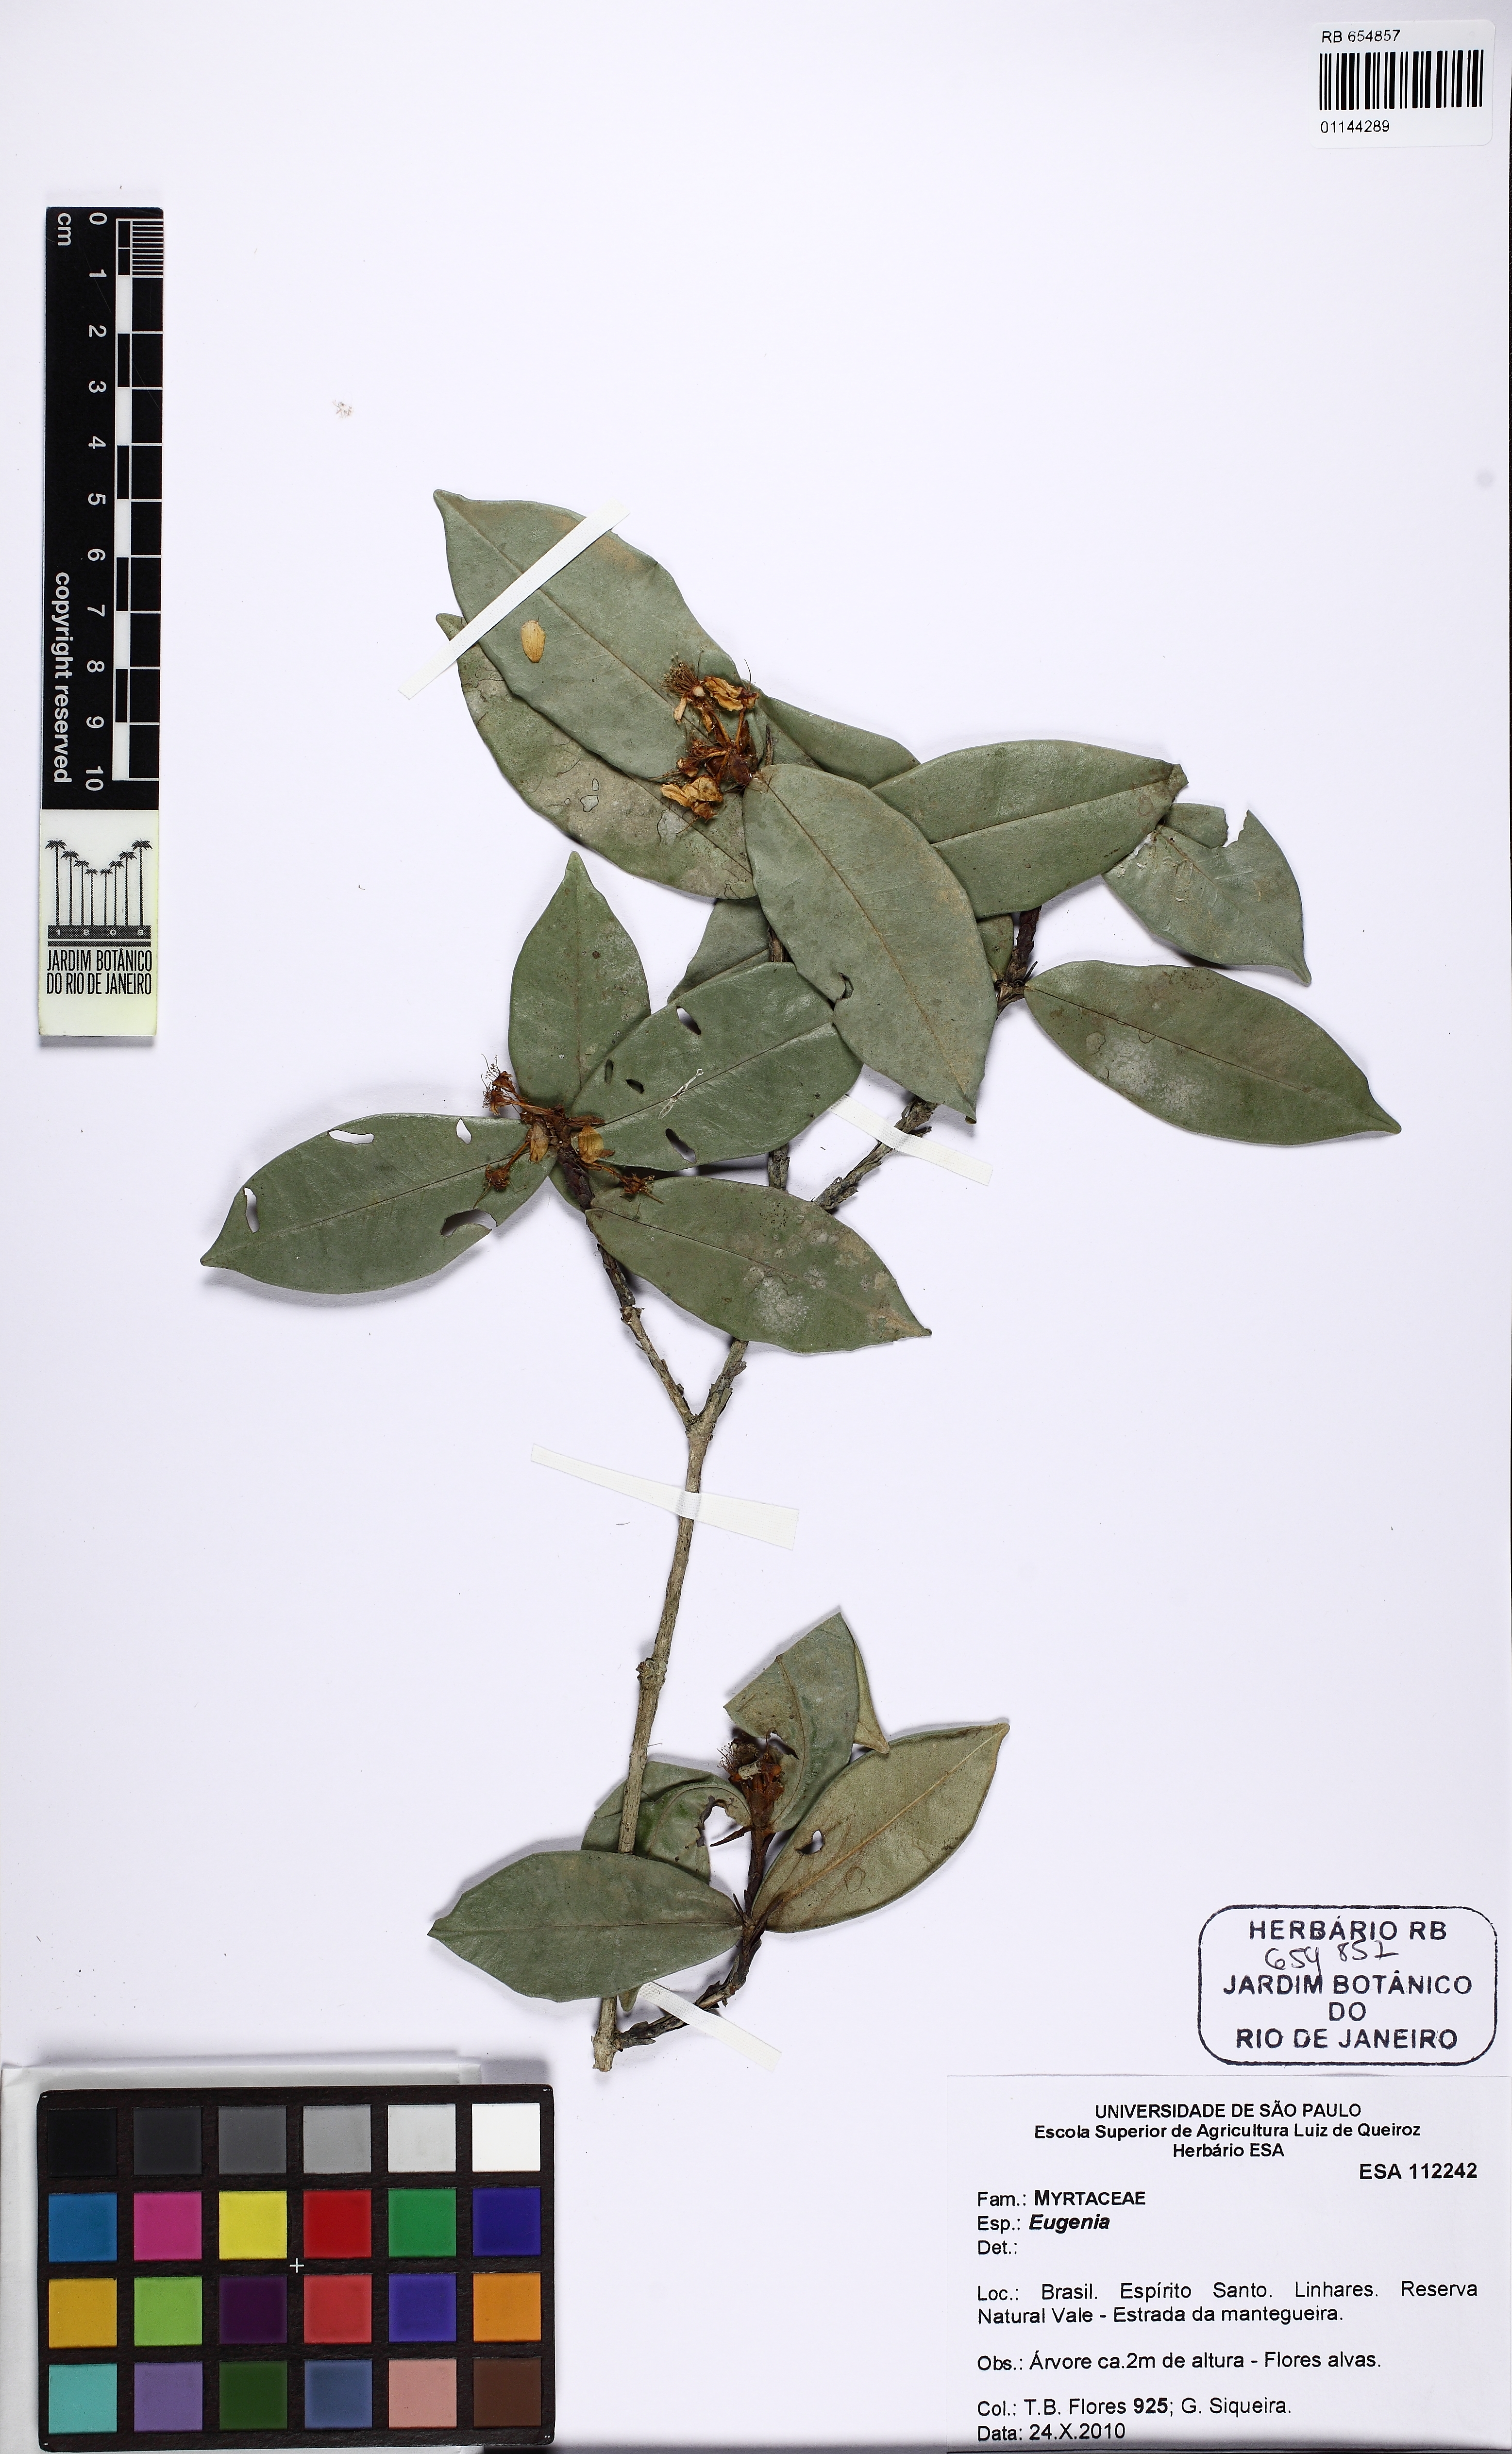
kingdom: Plantae
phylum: Tracheophyta
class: Magnoliopsida
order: Myrtales
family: Myrtaceae
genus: Eugenia
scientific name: Eugenia cataphyllea
